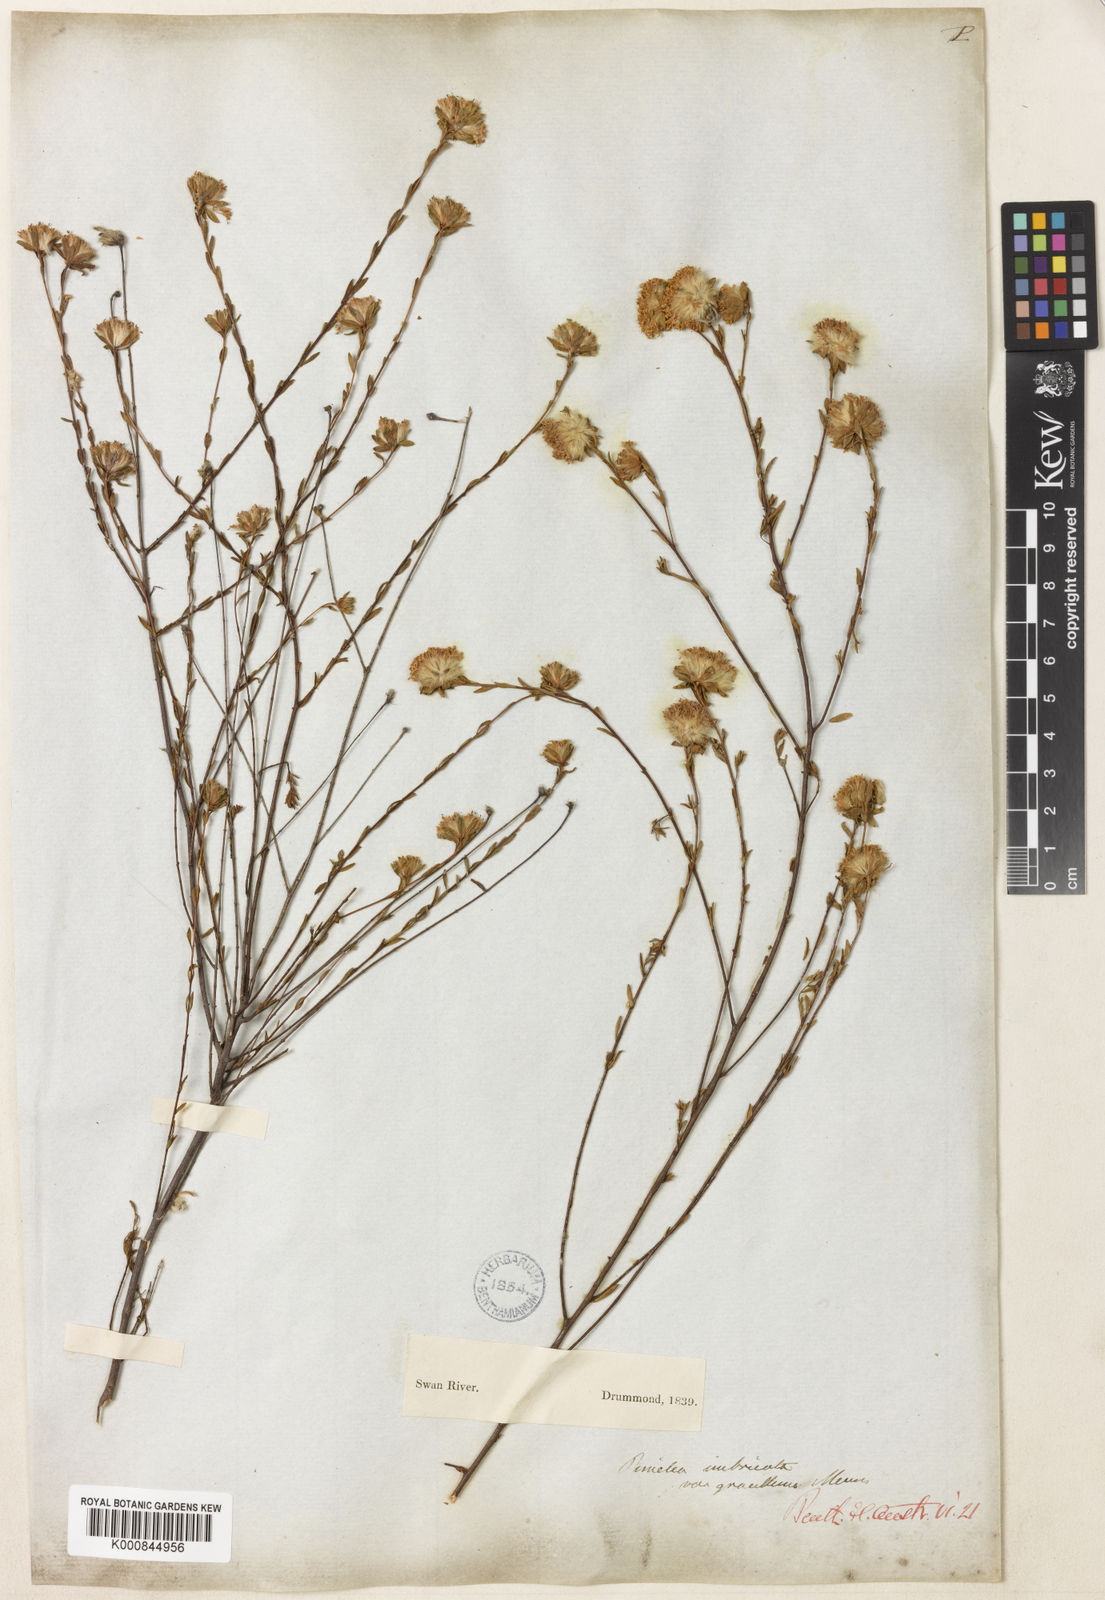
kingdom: Plantae
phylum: Tracheophyta
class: Magnoliopsida
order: Malvales
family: Thymelaeaceae
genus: Pimelea
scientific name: Pimelea imbricata
